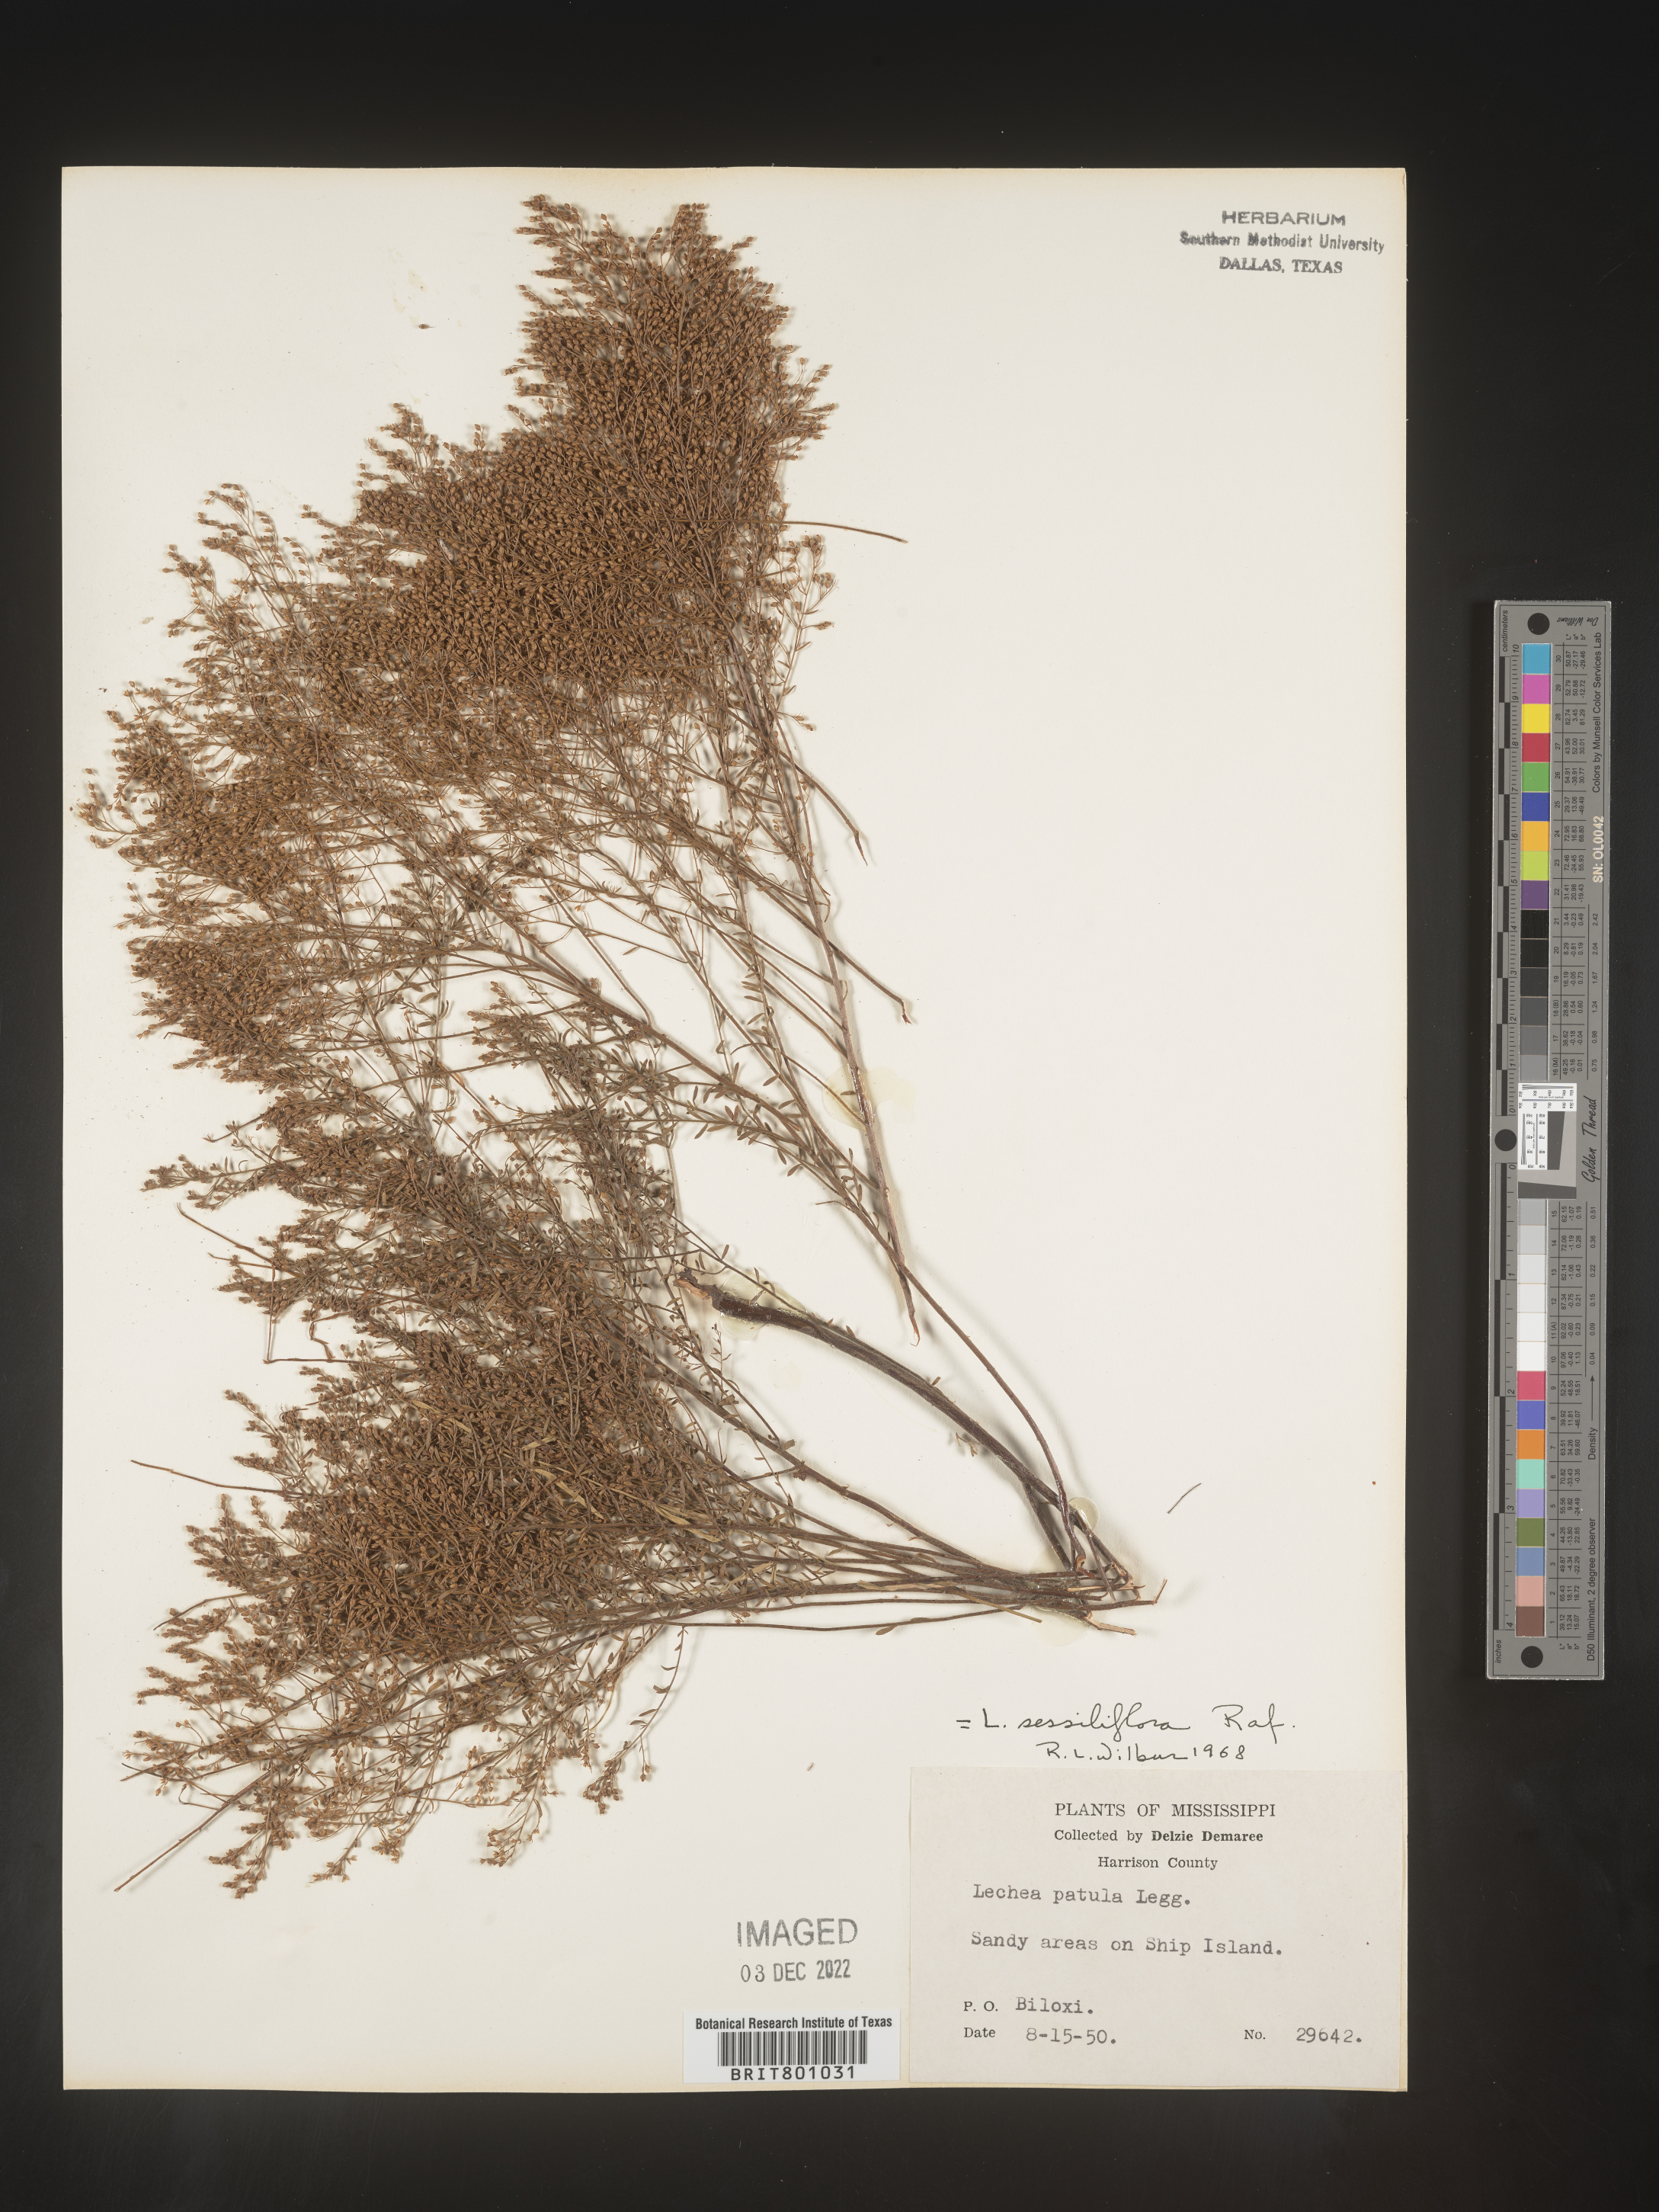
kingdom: Plantae
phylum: Tracheophyta
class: Magnoliopsida
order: Malvales
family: Cistaceae
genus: Lechea
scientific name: Lechea
